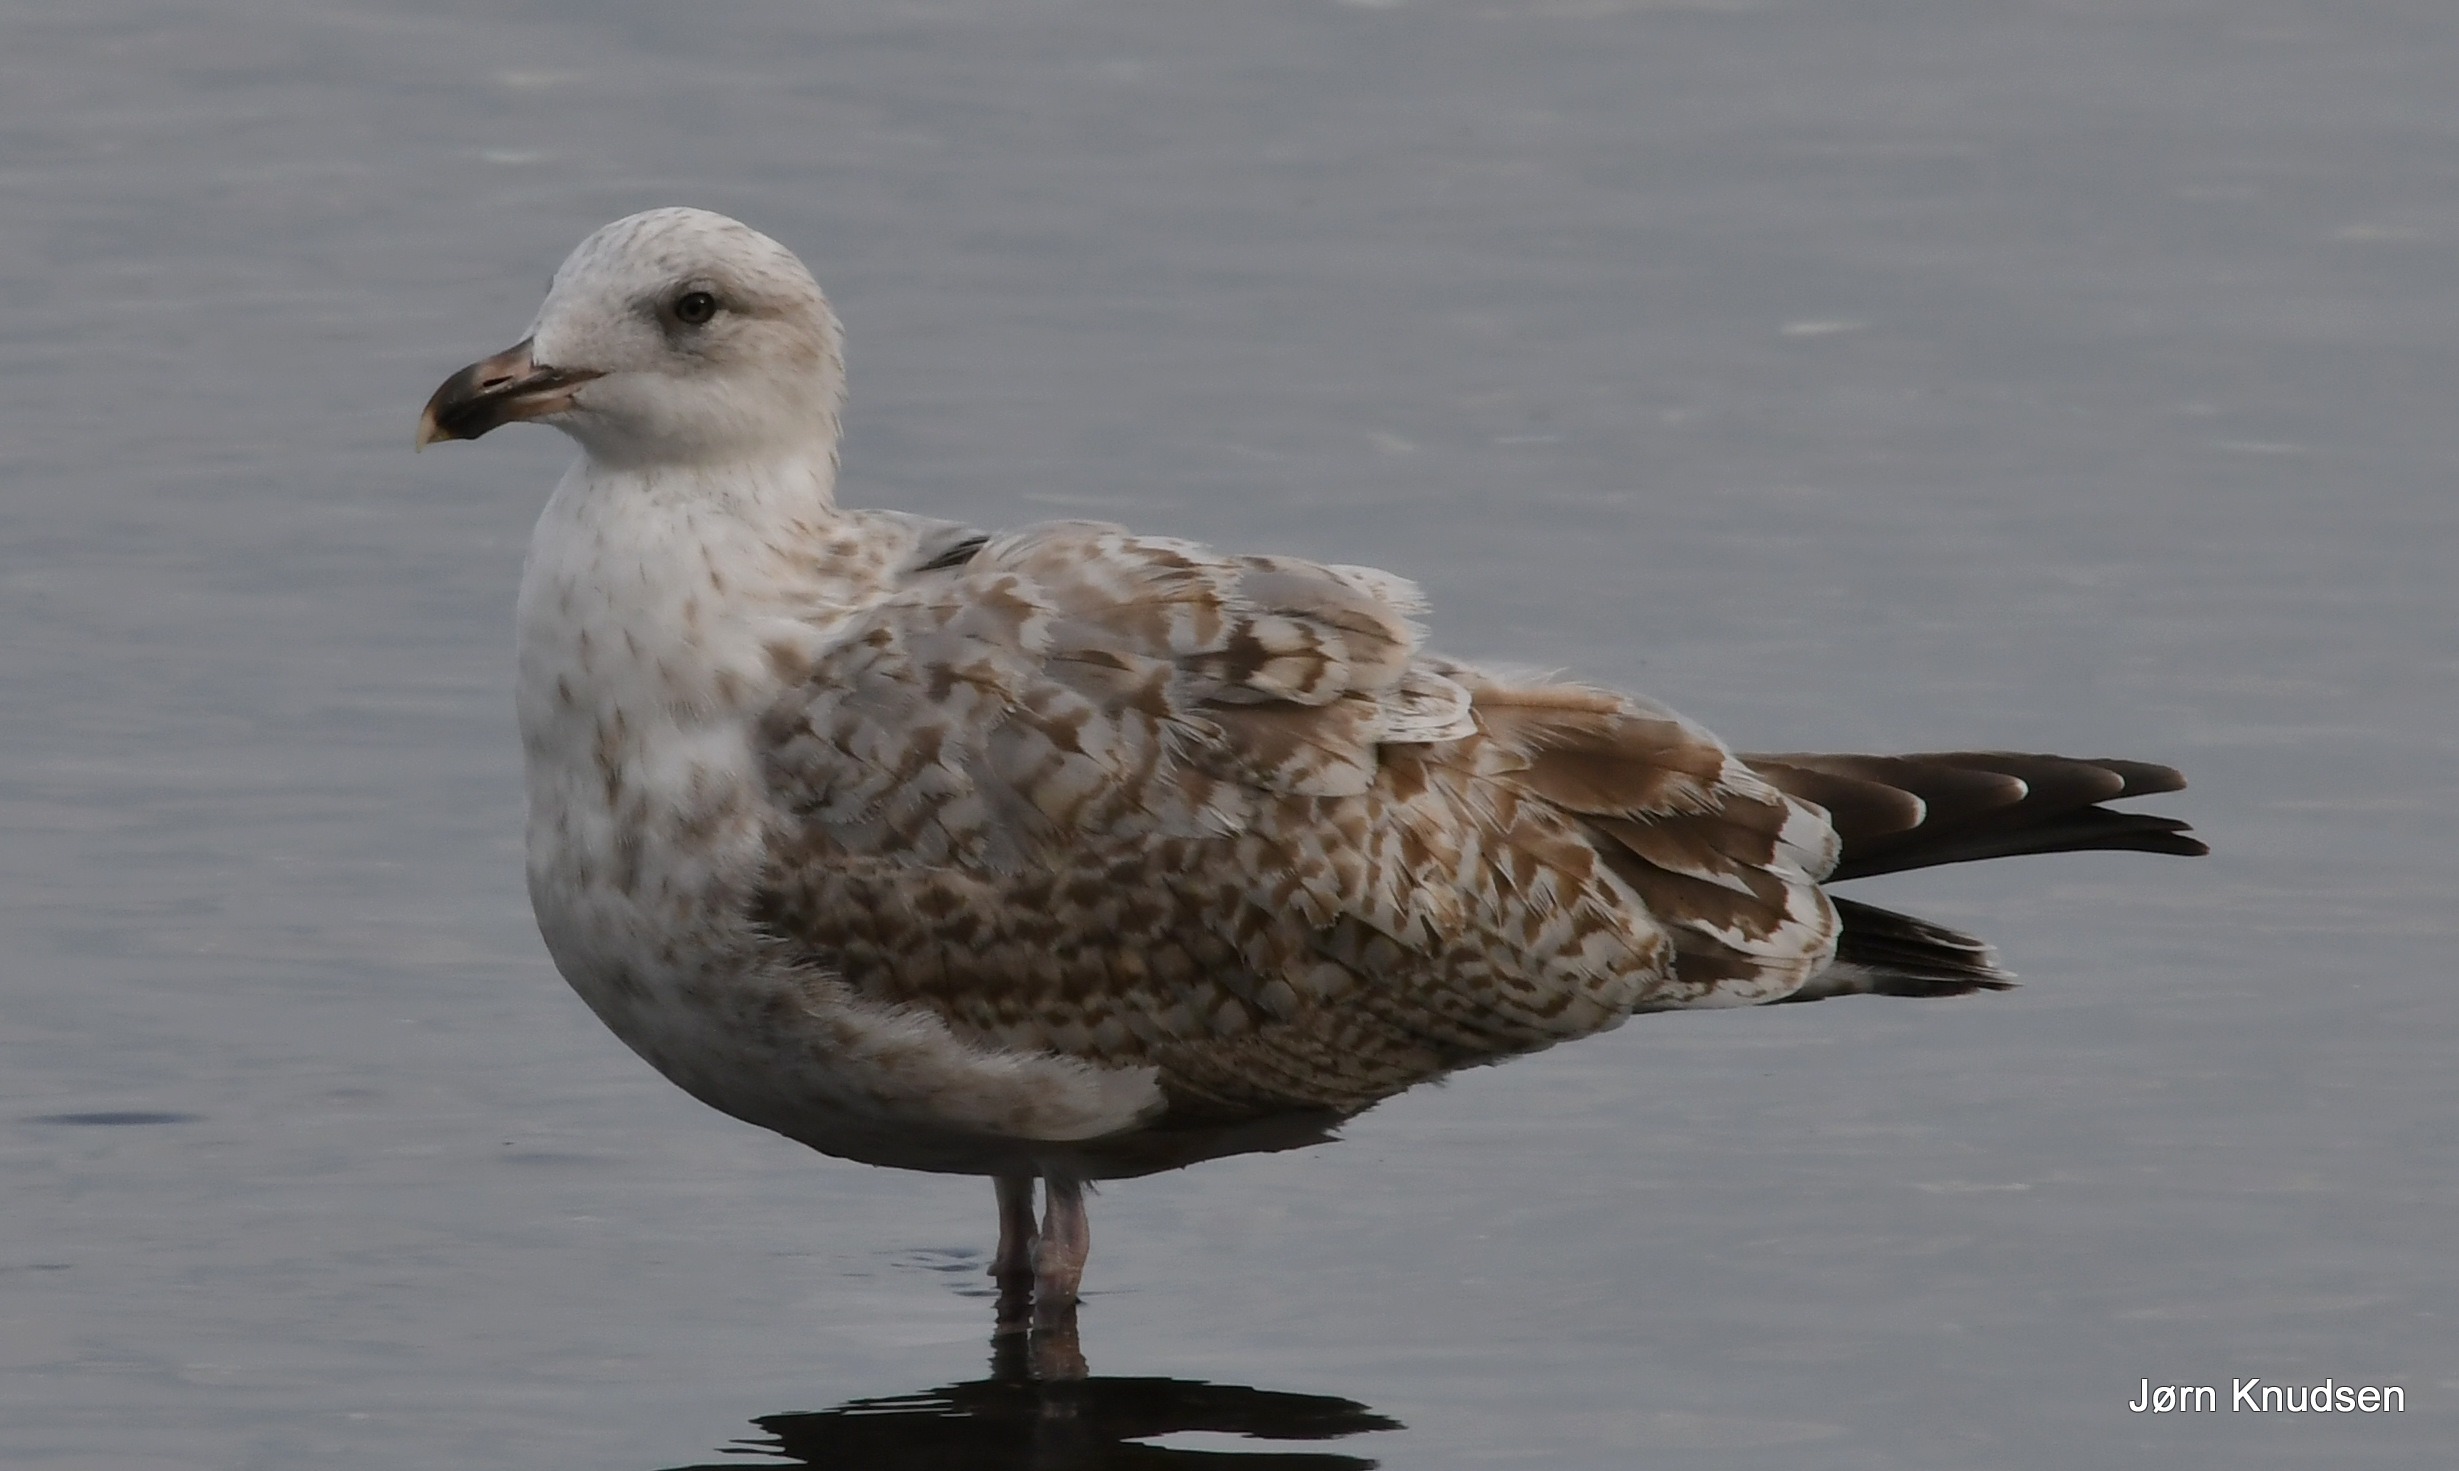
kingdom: Animalia
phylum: Chordata
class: Aves
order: Charadriiformes
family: Laridae
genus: Larus
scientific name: Larus argentatus
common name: Sølvmåge
